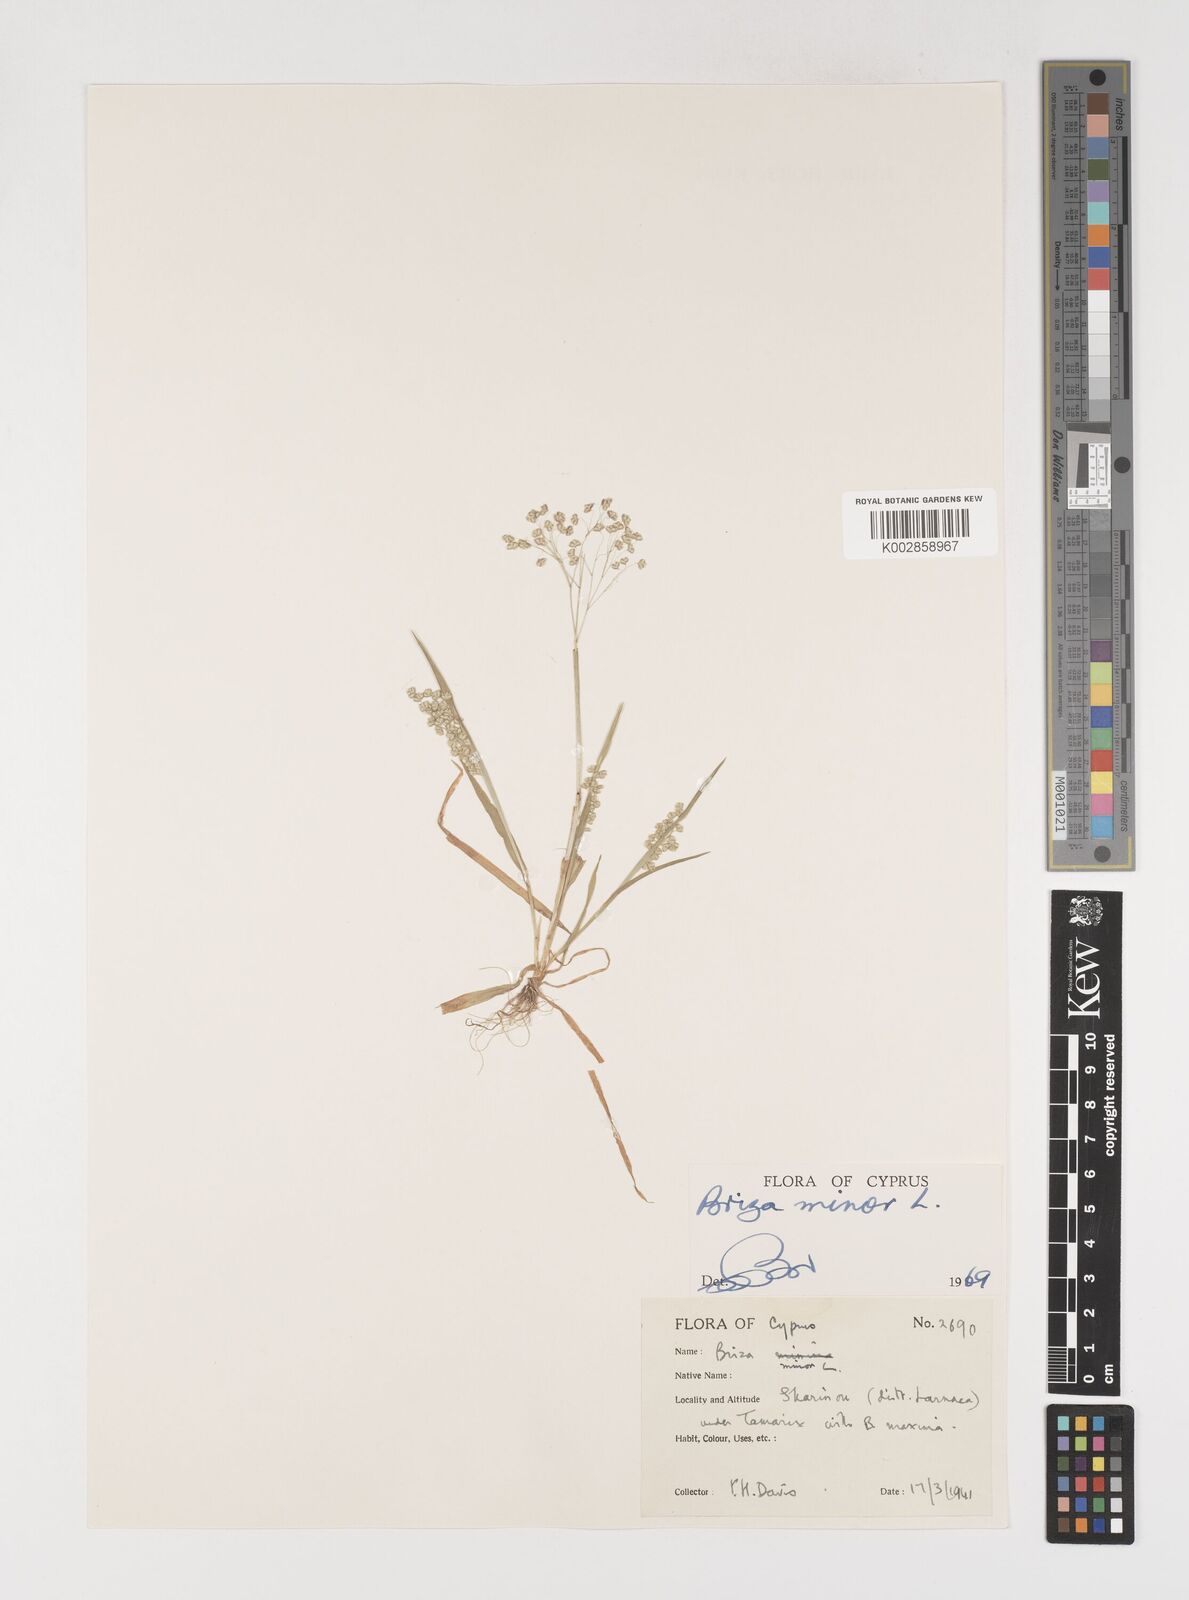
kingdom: Plantae
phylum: Tracheophyta
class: Liliopsida
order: Poales
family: Poaceae
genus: Briza
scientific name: Briza minor
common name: Lesser quaking-grass
